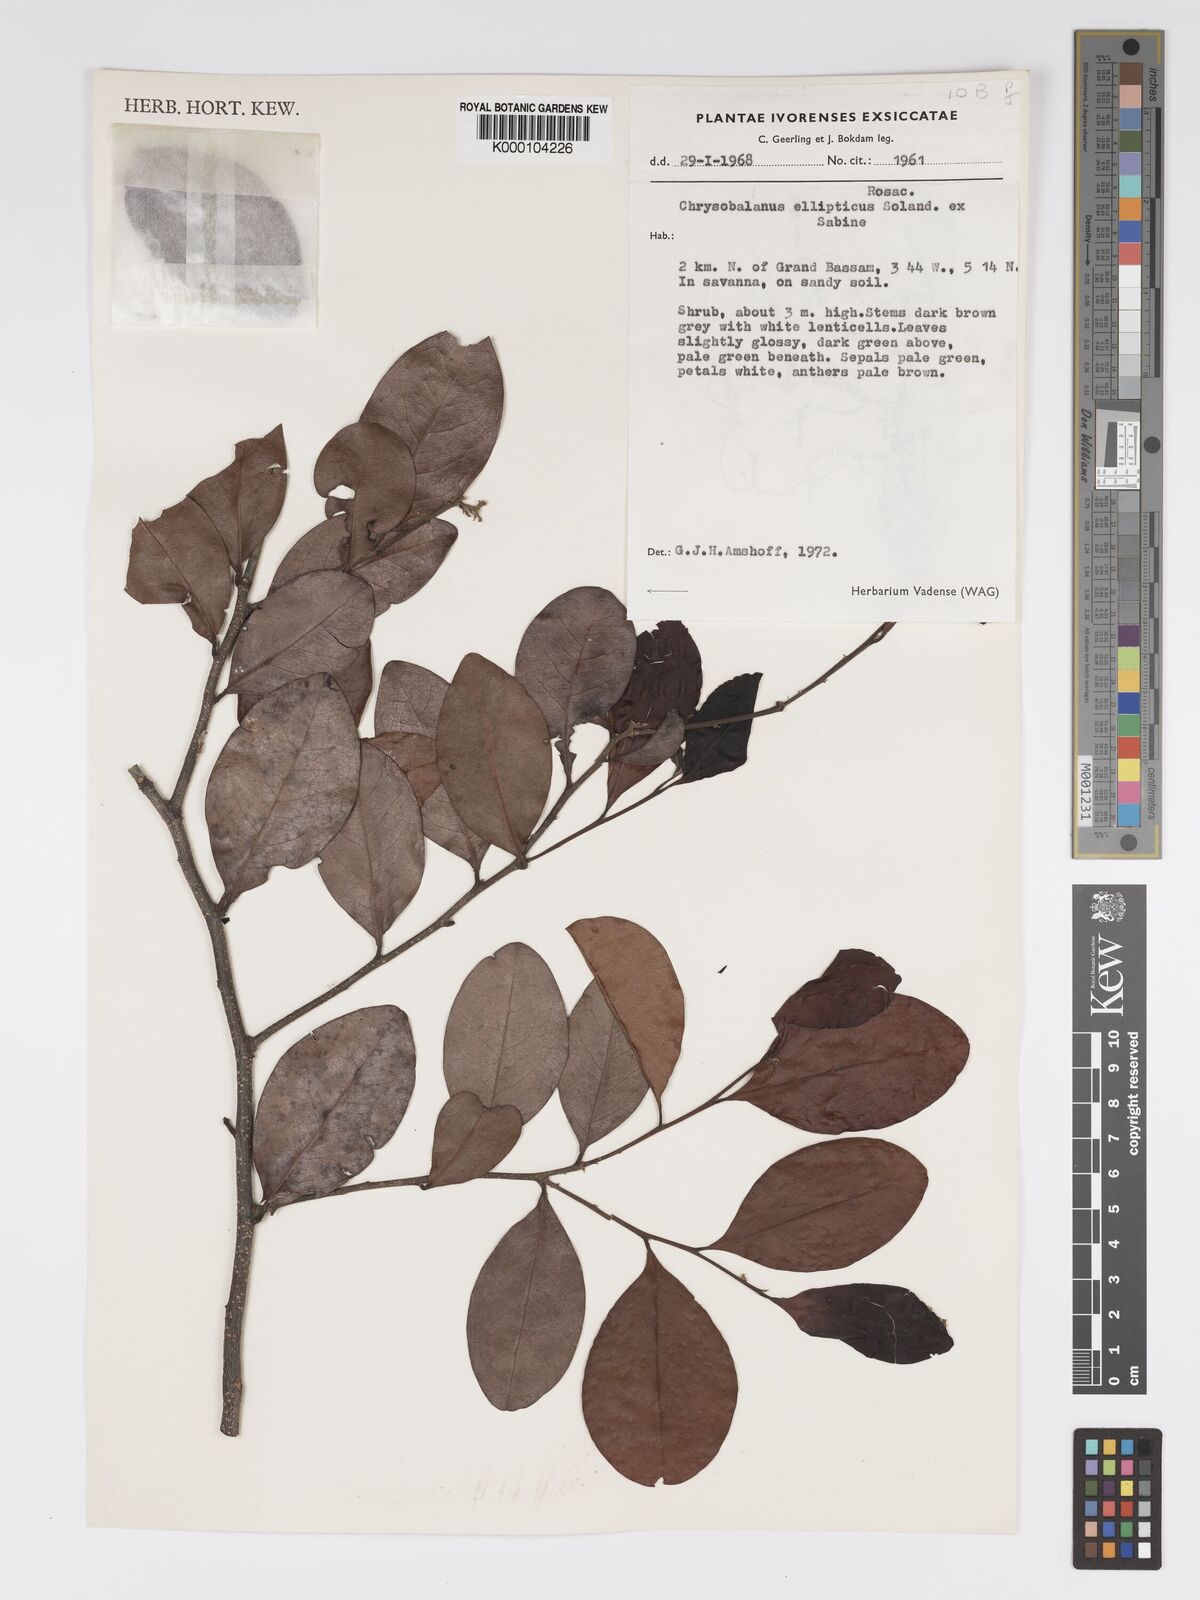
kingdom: Plantae
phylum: Tracheophyta
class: Magnoliopsida
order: Malpighiales
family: Chrysobalanaceae
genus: Chrysobalanus
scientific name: Chrysobalanus icaco
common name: Coco plum
